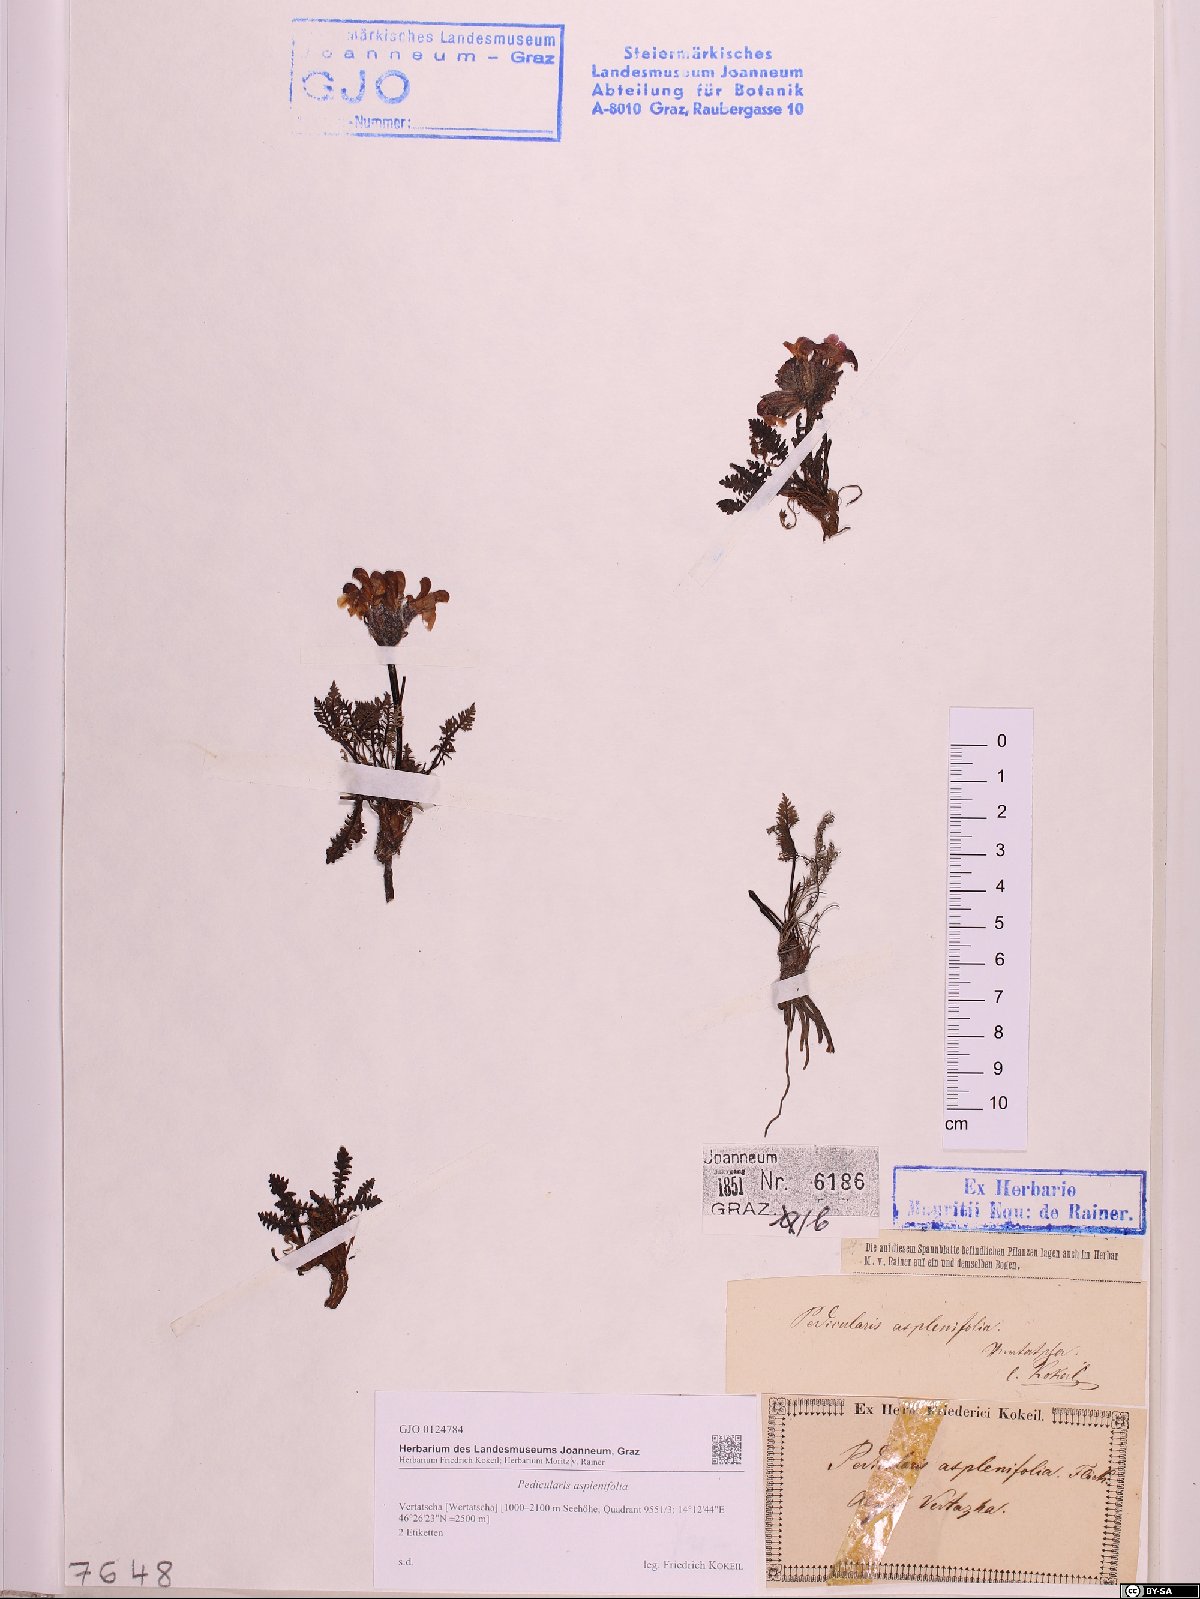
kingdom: Plantae
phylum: Tracheophyta
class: Magnoliopsida
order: Lamiales
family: Orobanchaceae
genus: Pedicularis
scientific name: Pedicularis asplenifolia
